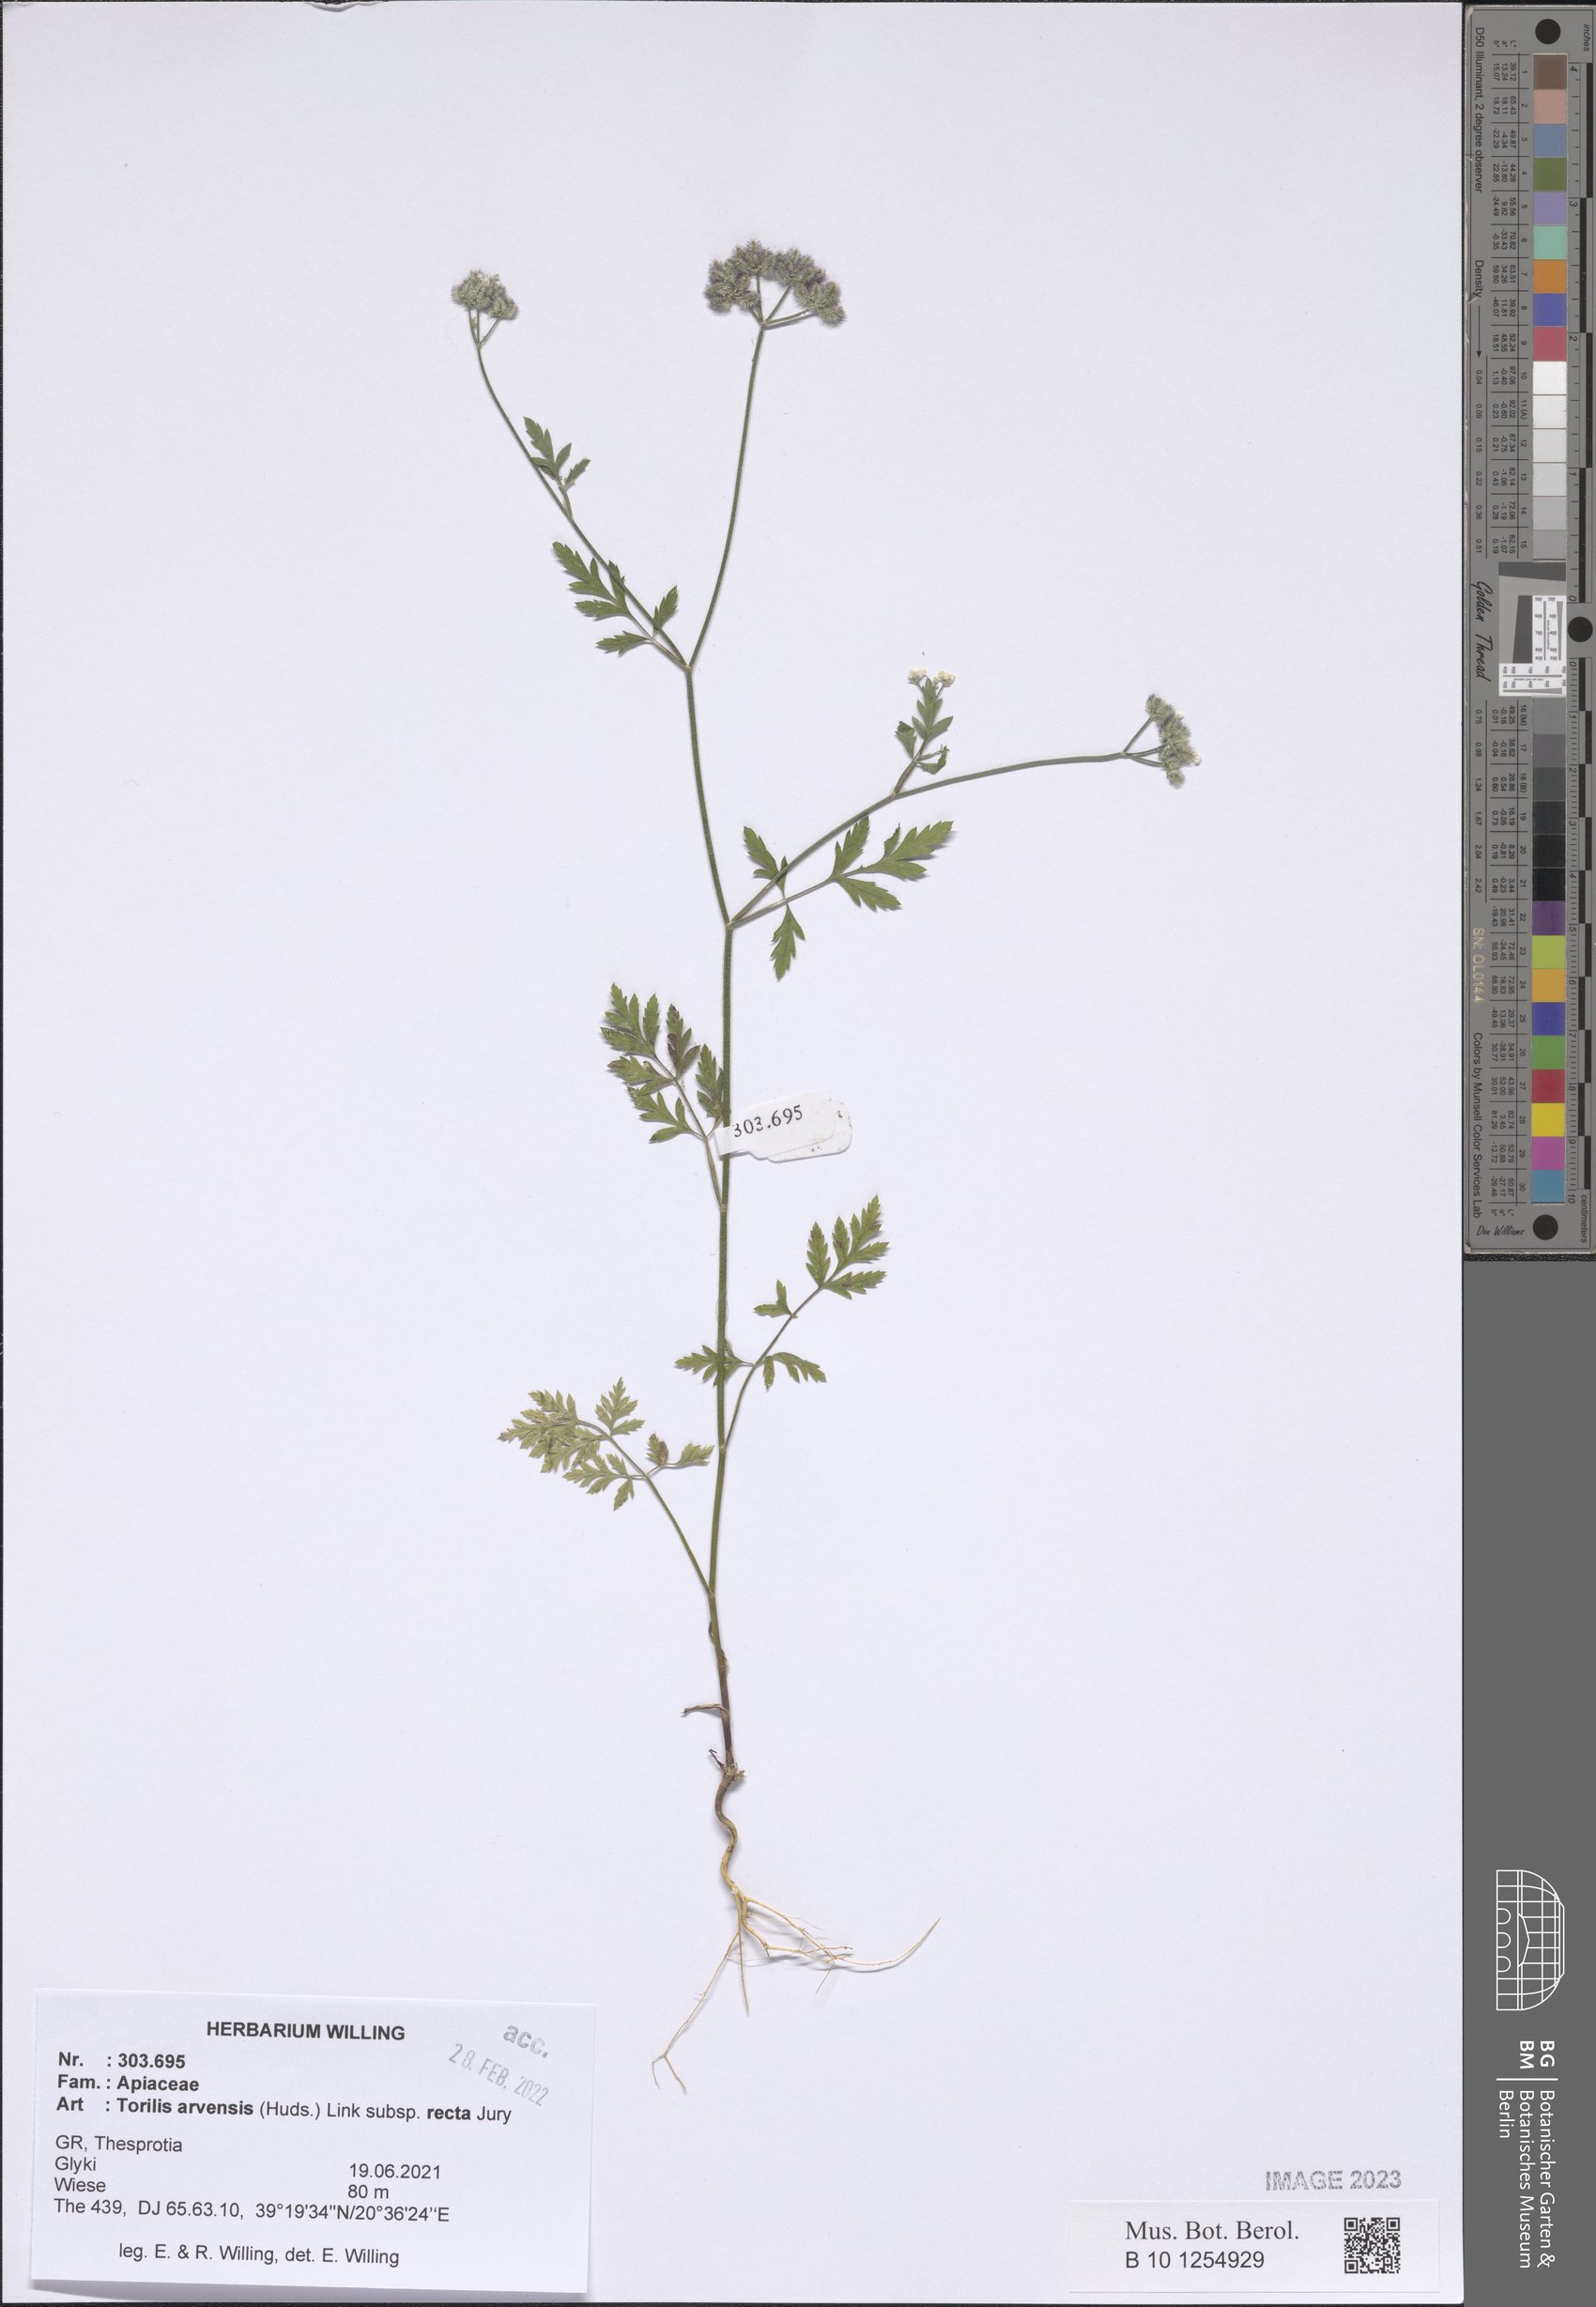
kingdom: Plantae
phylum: Tracheophyta
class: Magnoliopsida
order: Apiales
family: Apiaceae
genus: Torilis
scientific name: Torilis arvensis
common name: Spreading hedge-parsley
